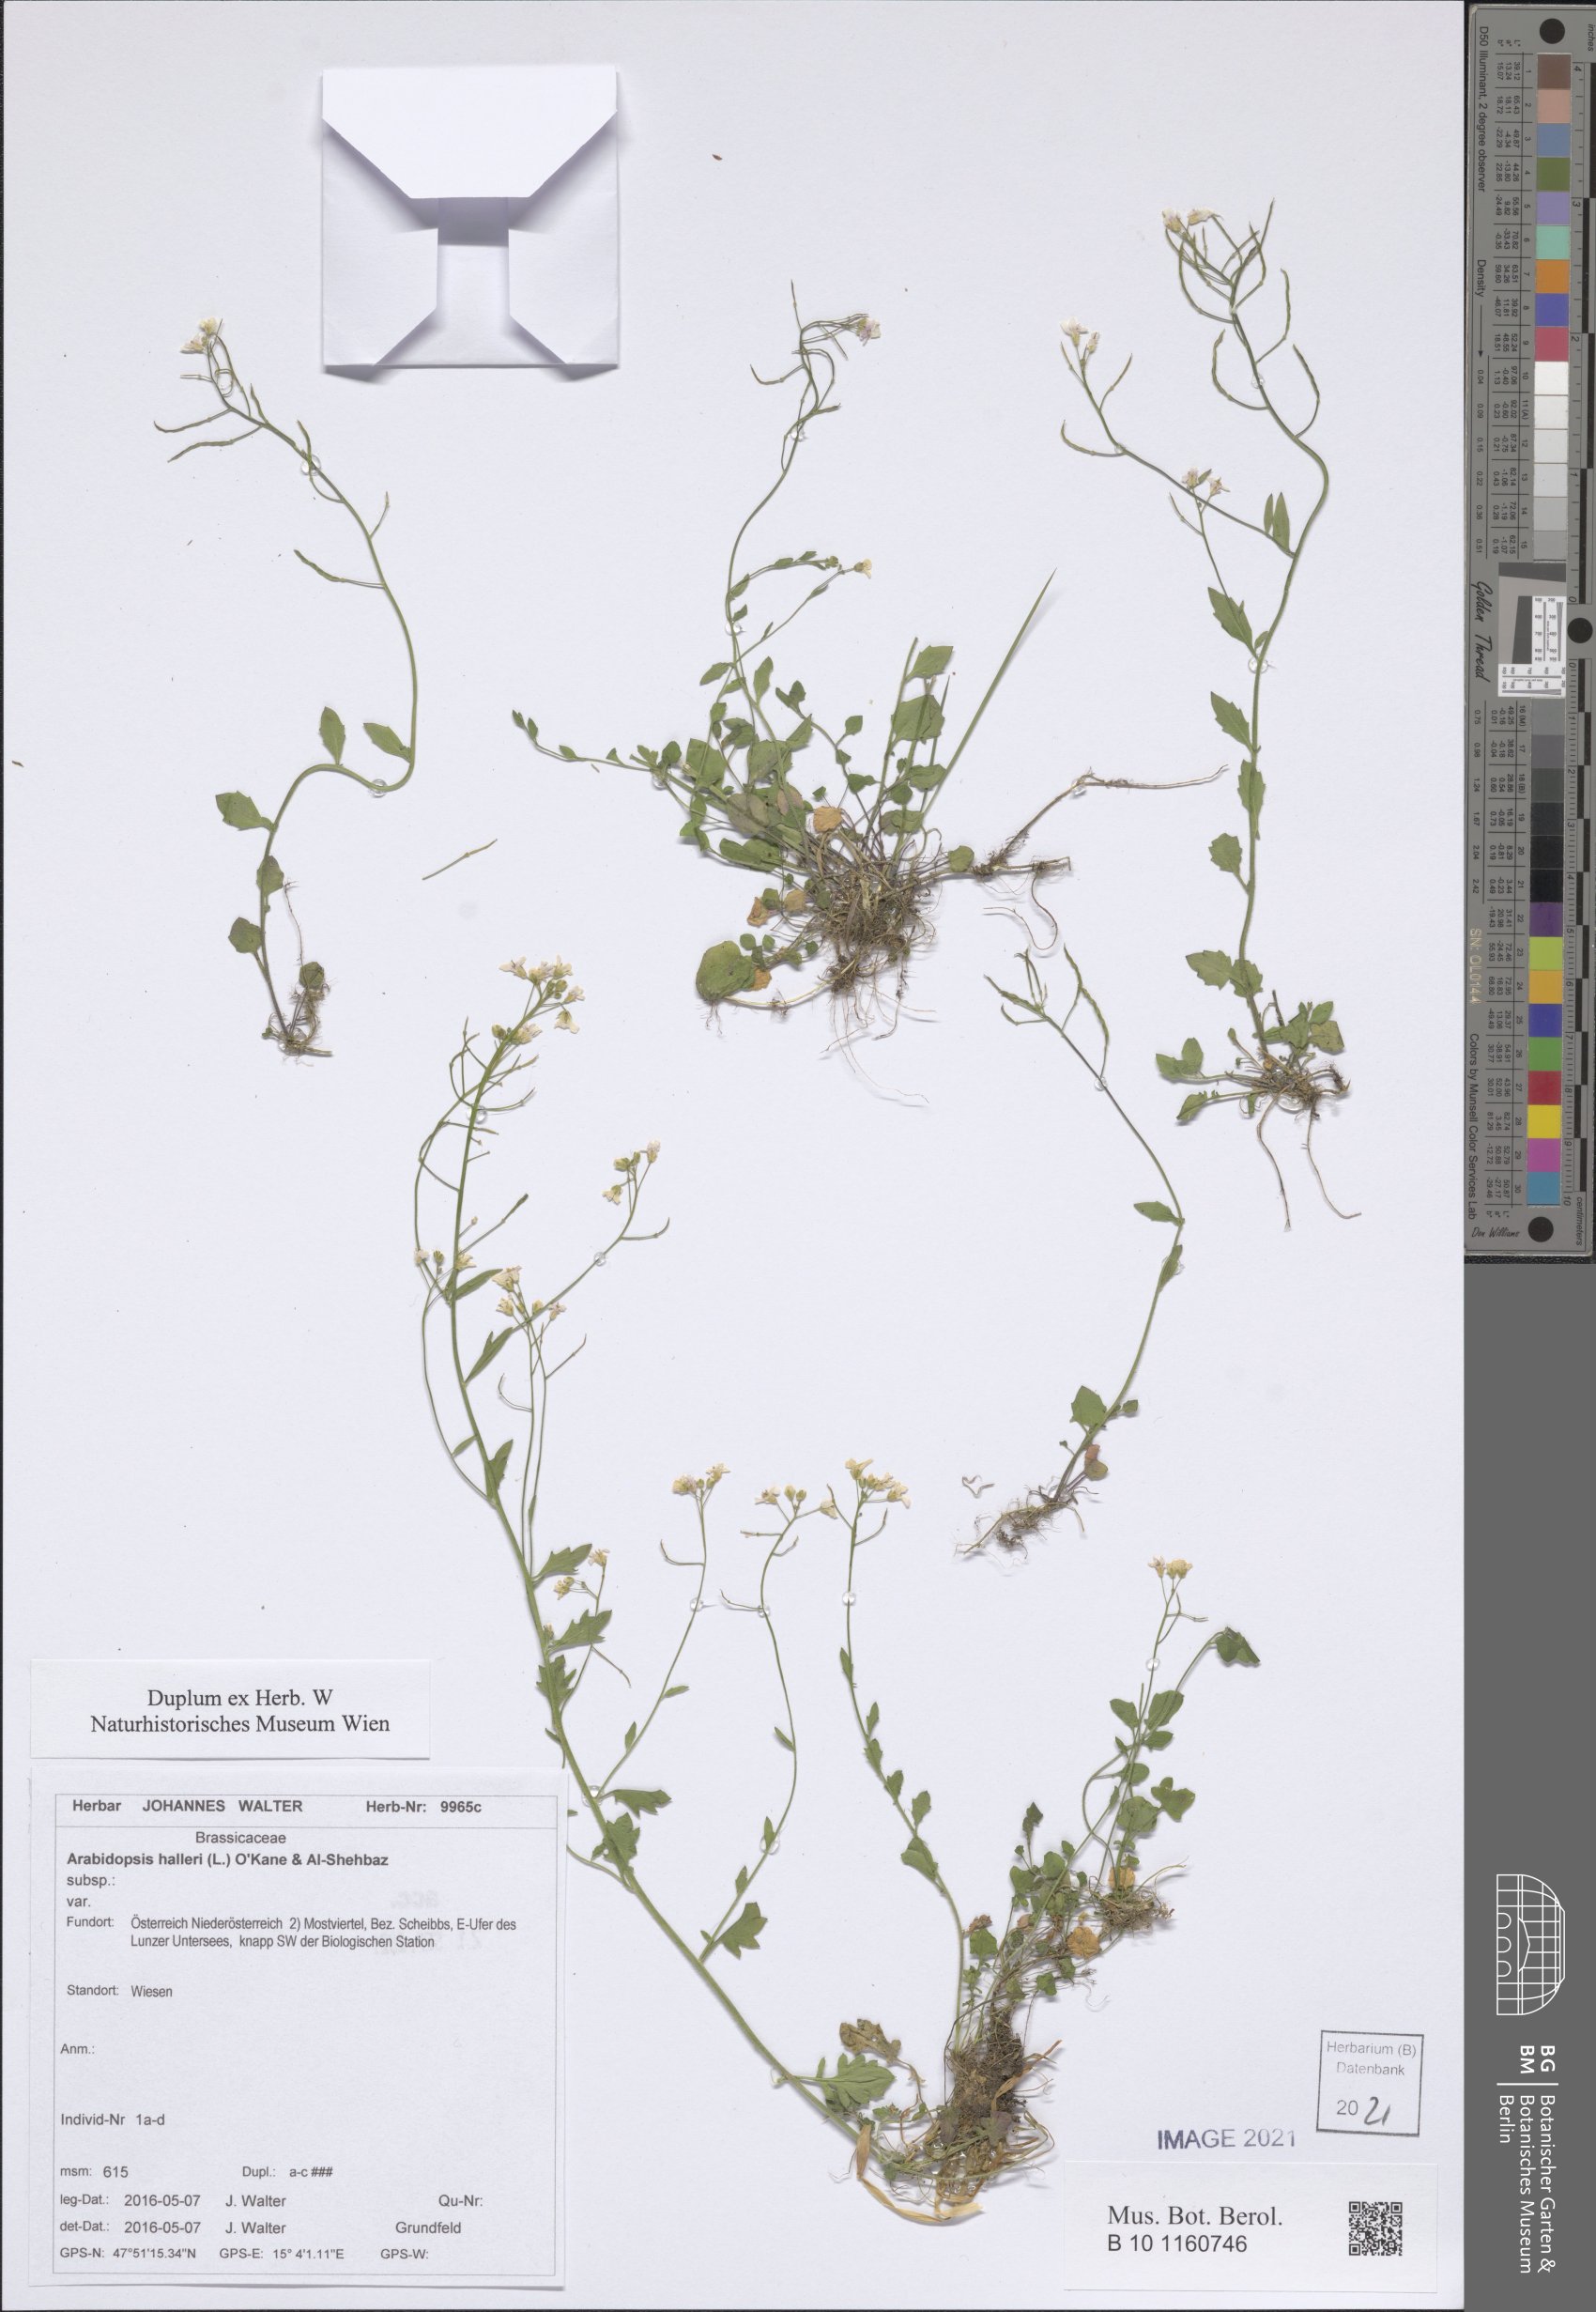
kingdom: Plantae
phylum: Tracheophyta
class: Magnoliopsida
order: Brassicales
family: Brassicaceae
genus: Arabidopsis
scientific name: Arabidopsis halleri
